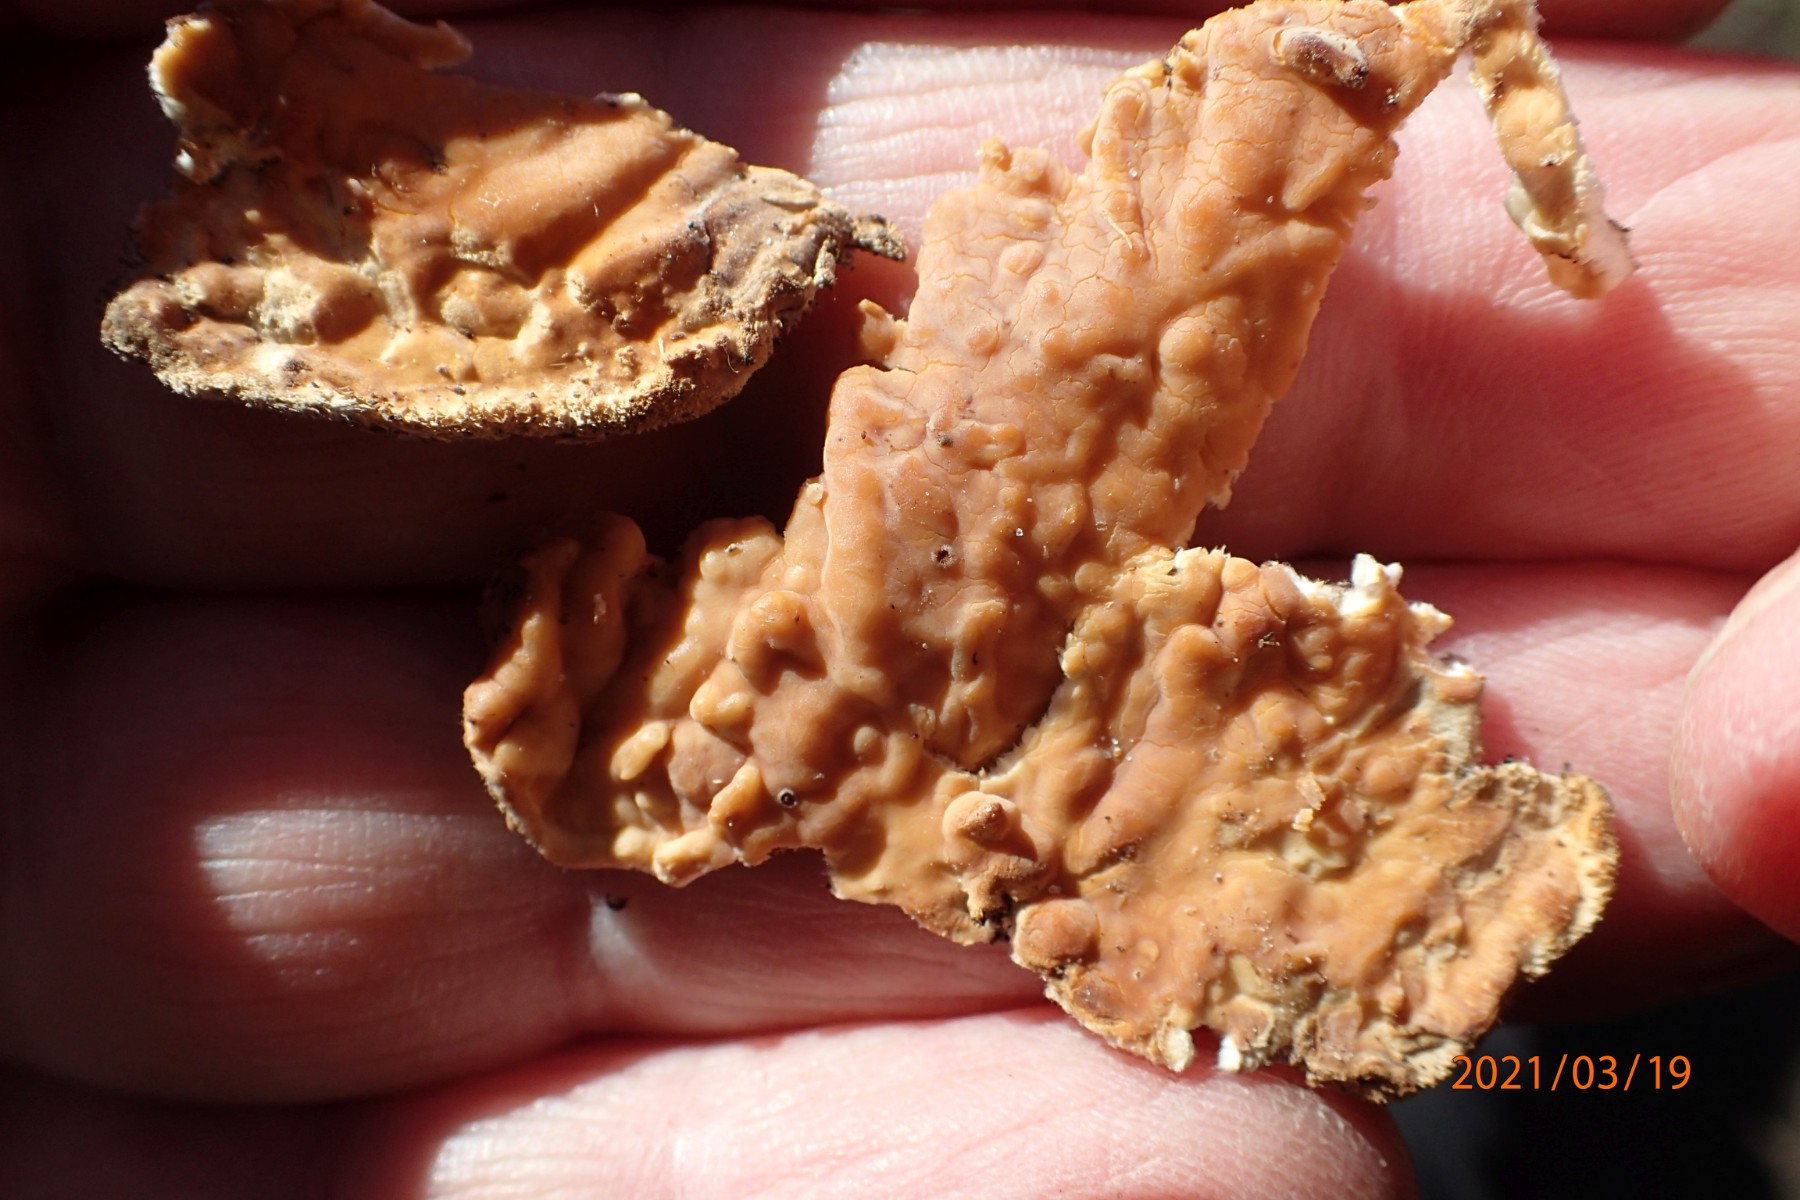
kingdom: Fungi
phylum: Basidiomycota
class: Agaricomycetes
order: Corticiales
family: Corticiaceae
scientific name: Corticiaceae
